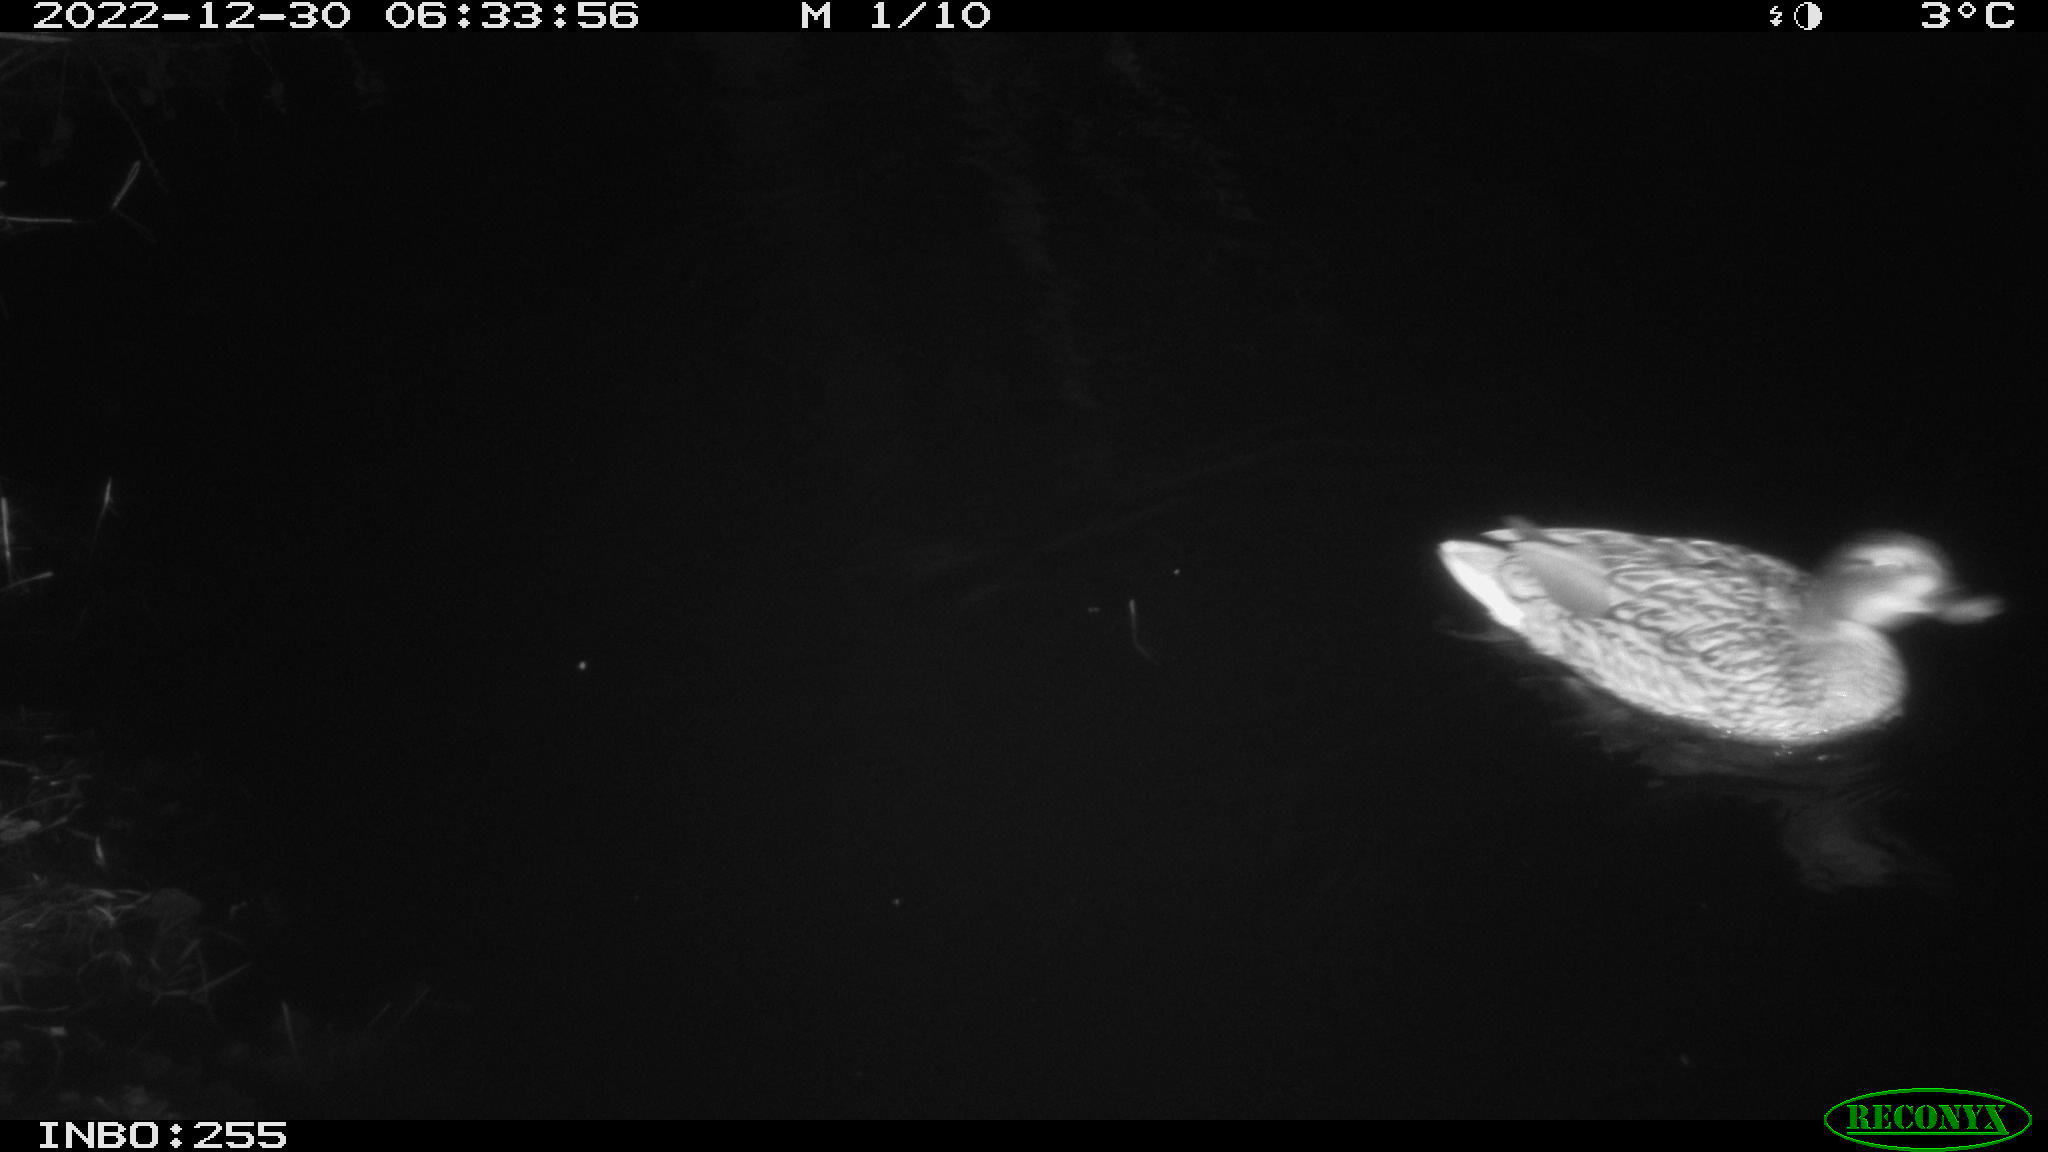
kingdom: Animalia
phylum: Chordata
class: Aves
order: Anseriformes
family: Anatidae
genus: Anas
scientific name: Anas
